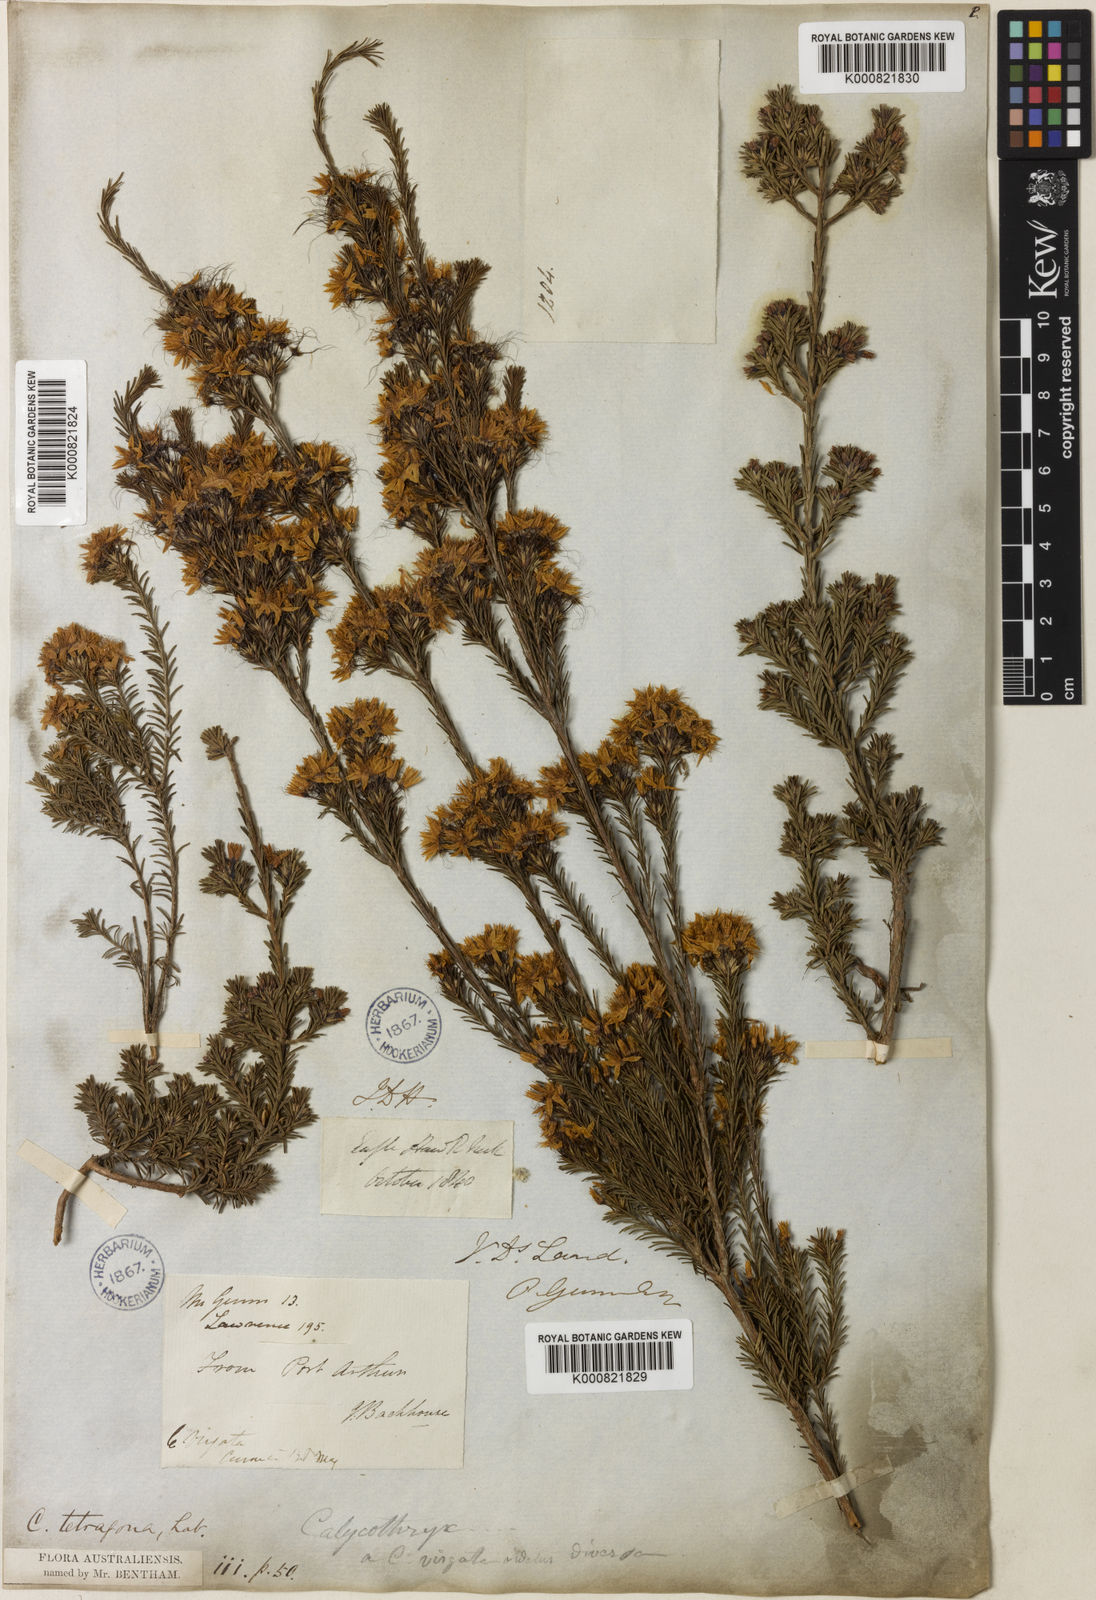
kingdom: Plantae
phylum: Tracheophyta
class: Magnoliopsida
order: Myrtales
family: Myrtaceae
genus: Calytrix
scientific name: Calytrix tetragona
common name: Common fringe myrtle
